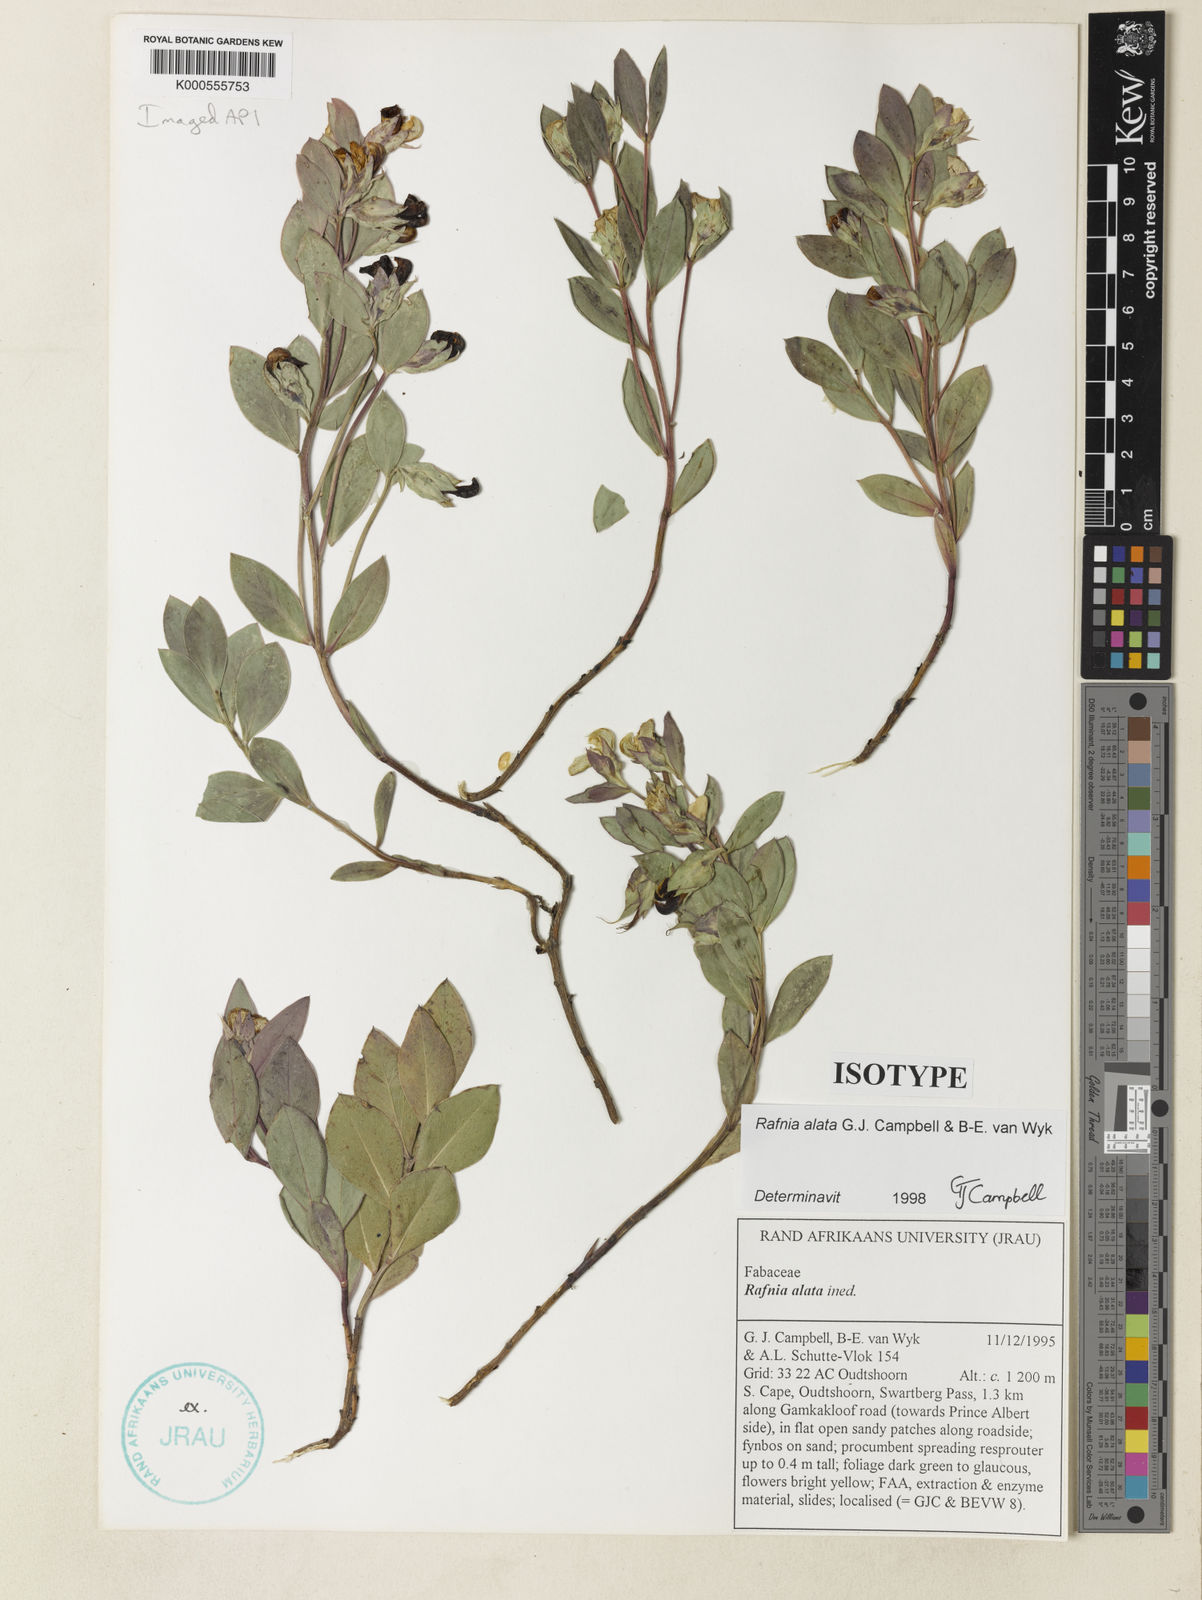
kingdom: Plantae
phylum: Tracheophyta
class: Magnoliopsida
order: Fabales
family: Fabaceae
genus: Rafnia
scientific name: Rafnia alata
